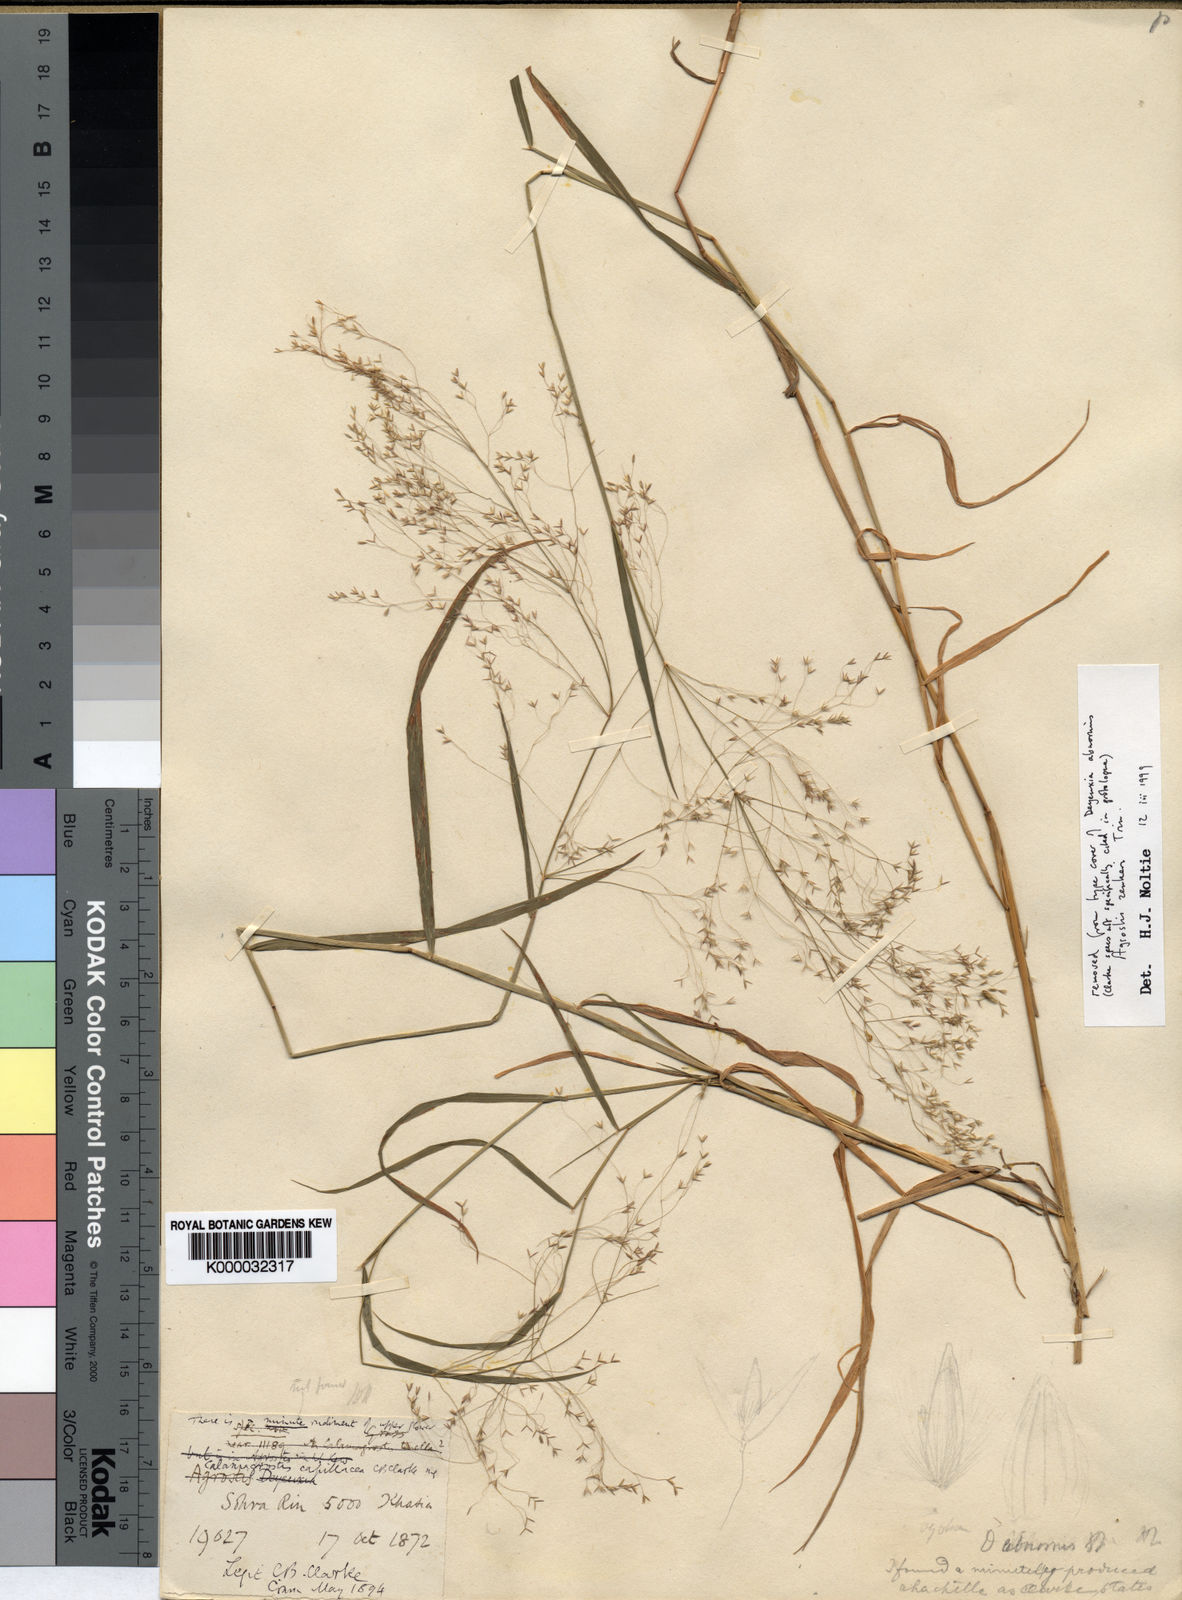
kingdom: Plantae
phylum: Tracheophyta
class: Liliopsida
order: Poales
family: Poaceae
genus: Calamagrostis
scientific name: Calamagrostis abnormis
